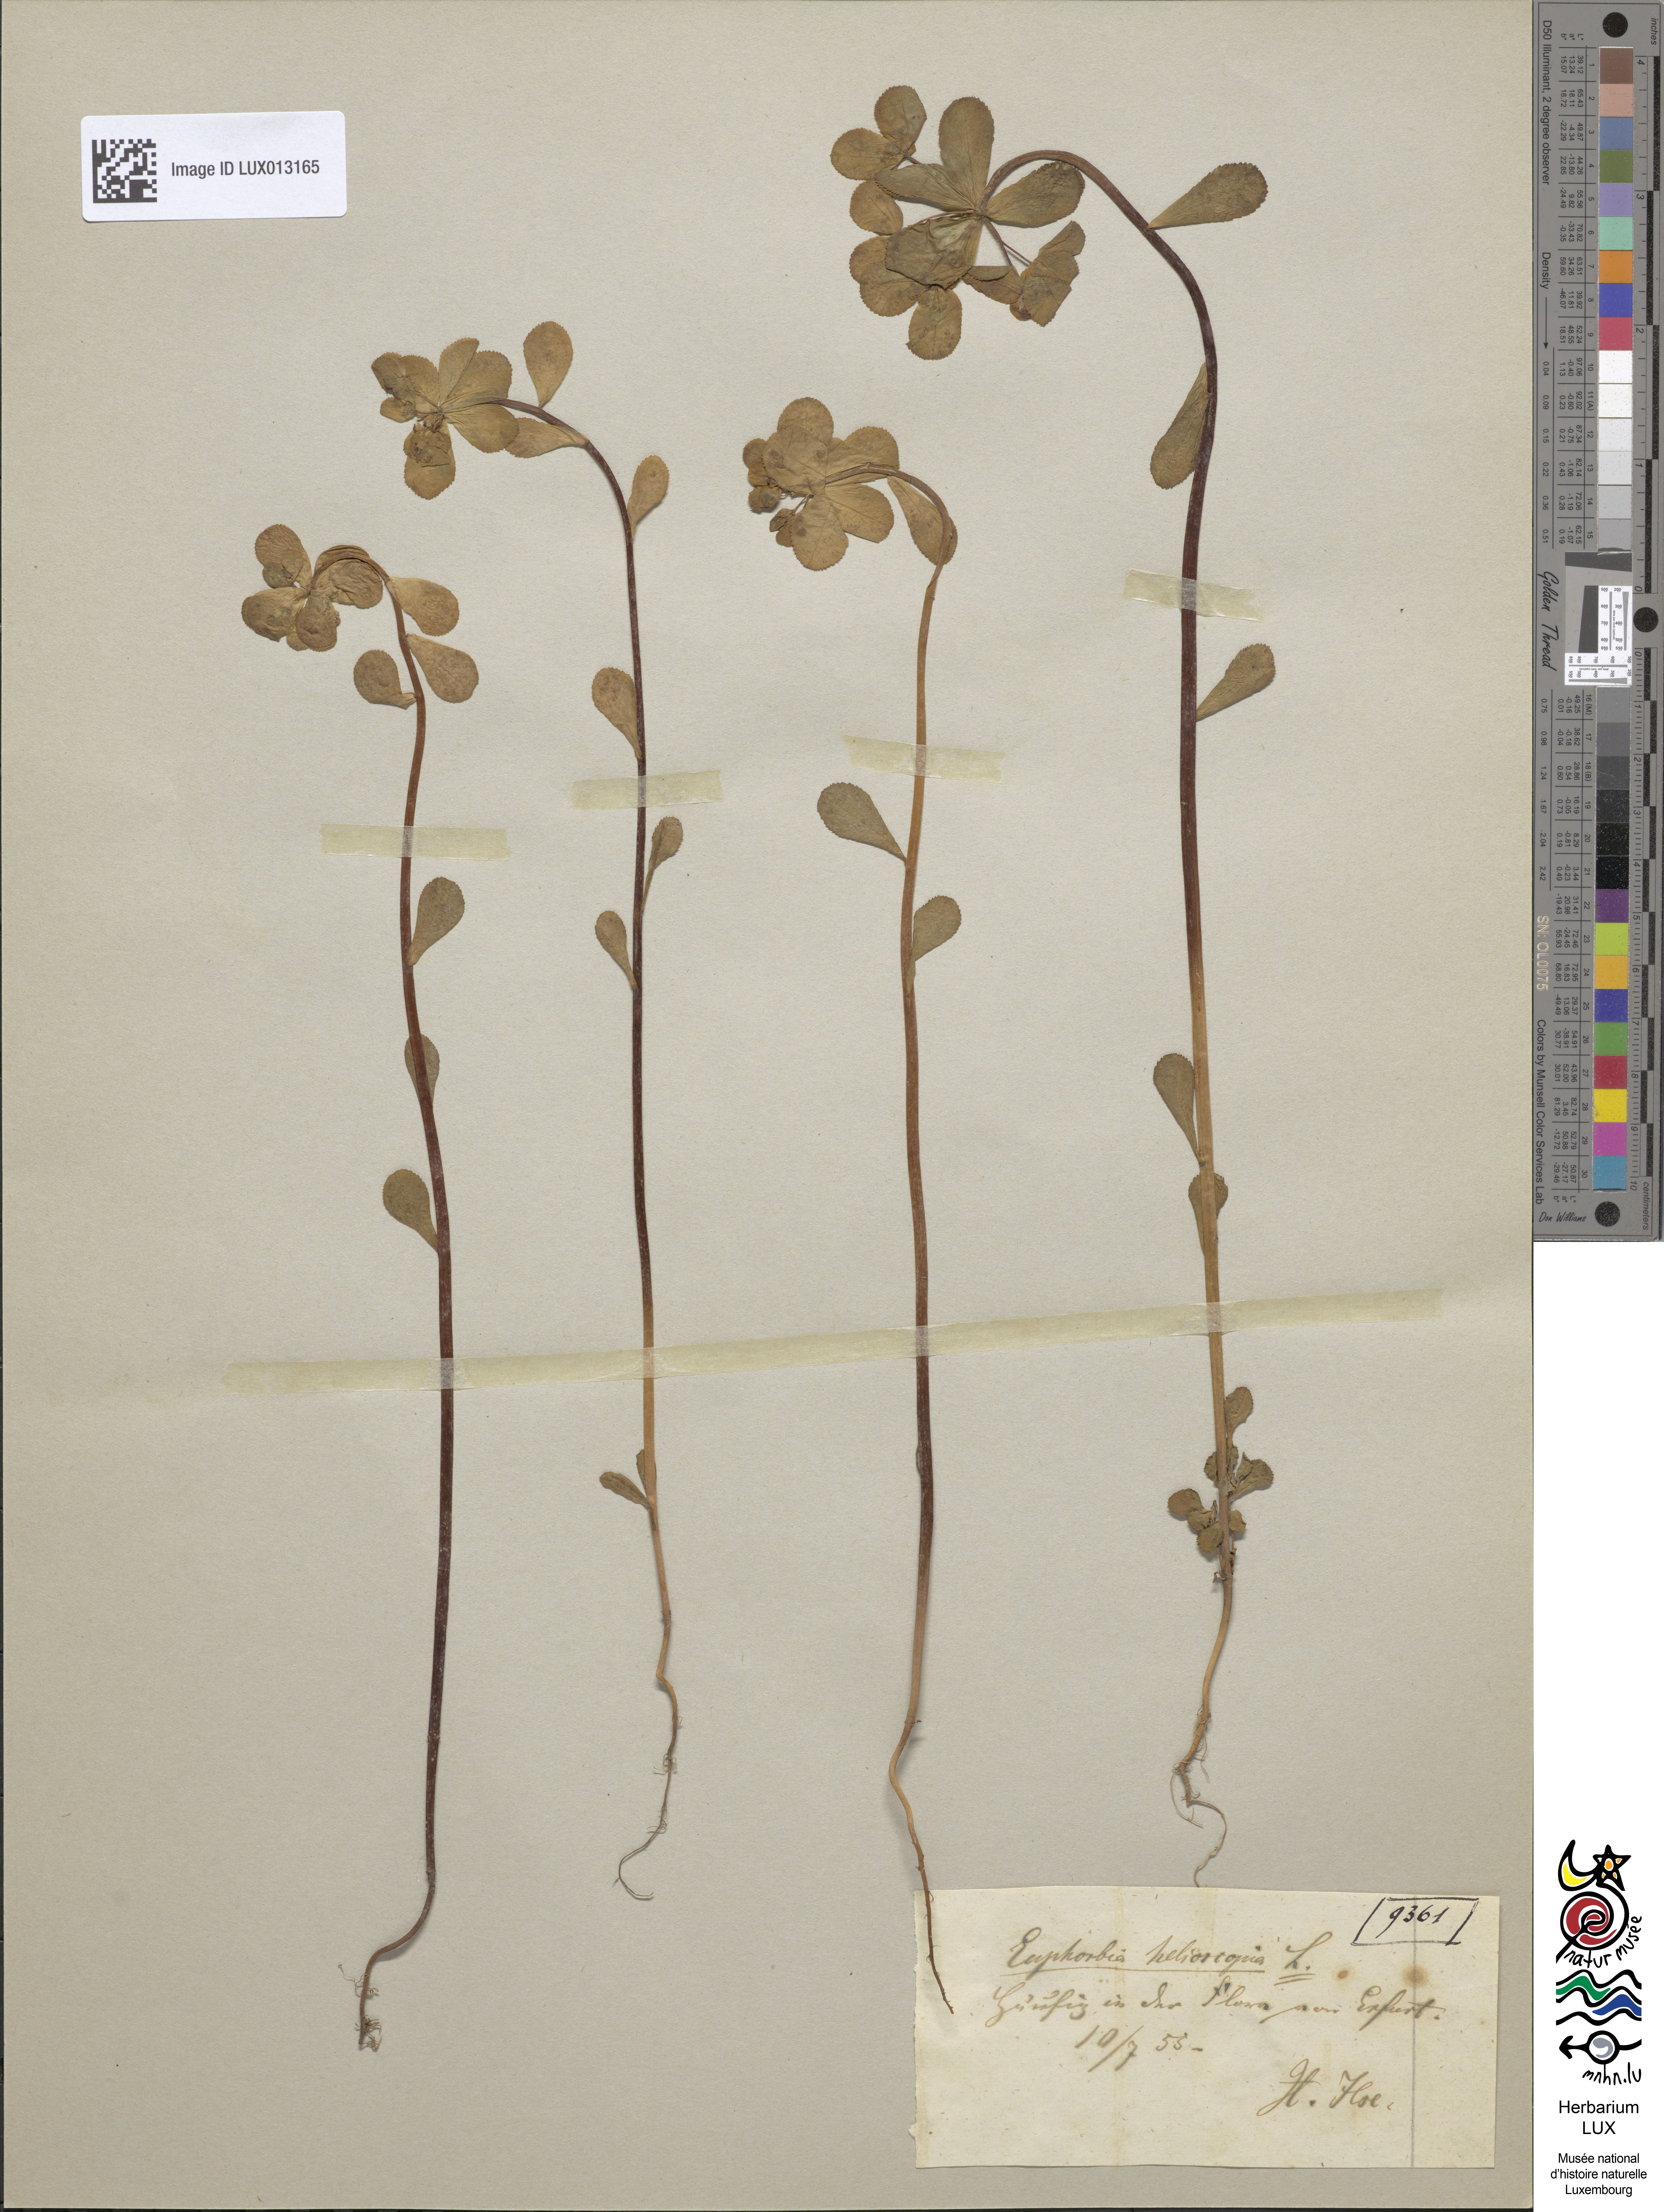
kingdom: Plantae
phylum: Tracheophyta
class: Magnoliopsida
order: Malpighiales
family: Euphorbiaceae
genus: Euphorbia
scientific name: Euphorbia helioscopia
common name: Sun spurge
